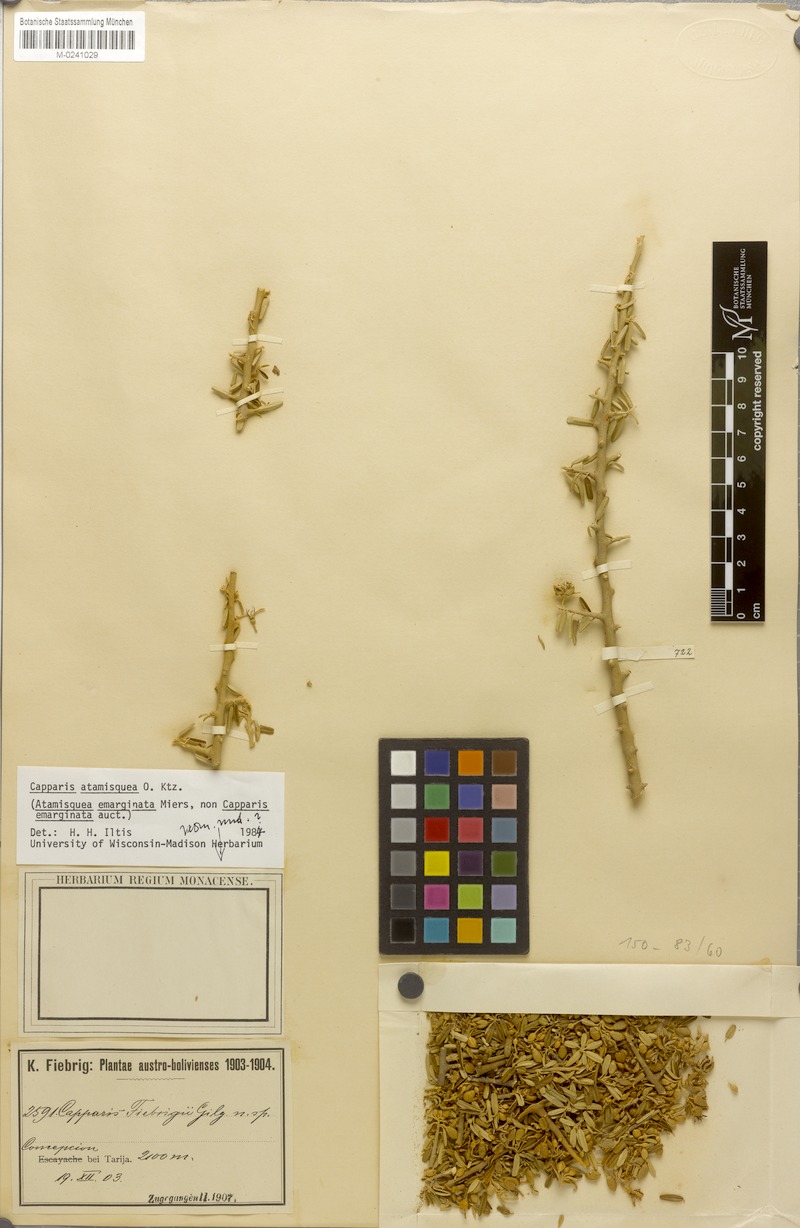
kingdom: Plantae
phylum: Tracheophyta
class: Magnoliopsida
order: Brassicales
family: Capparaceae
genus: Atamisquea
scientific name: Atamisquea emarginata
